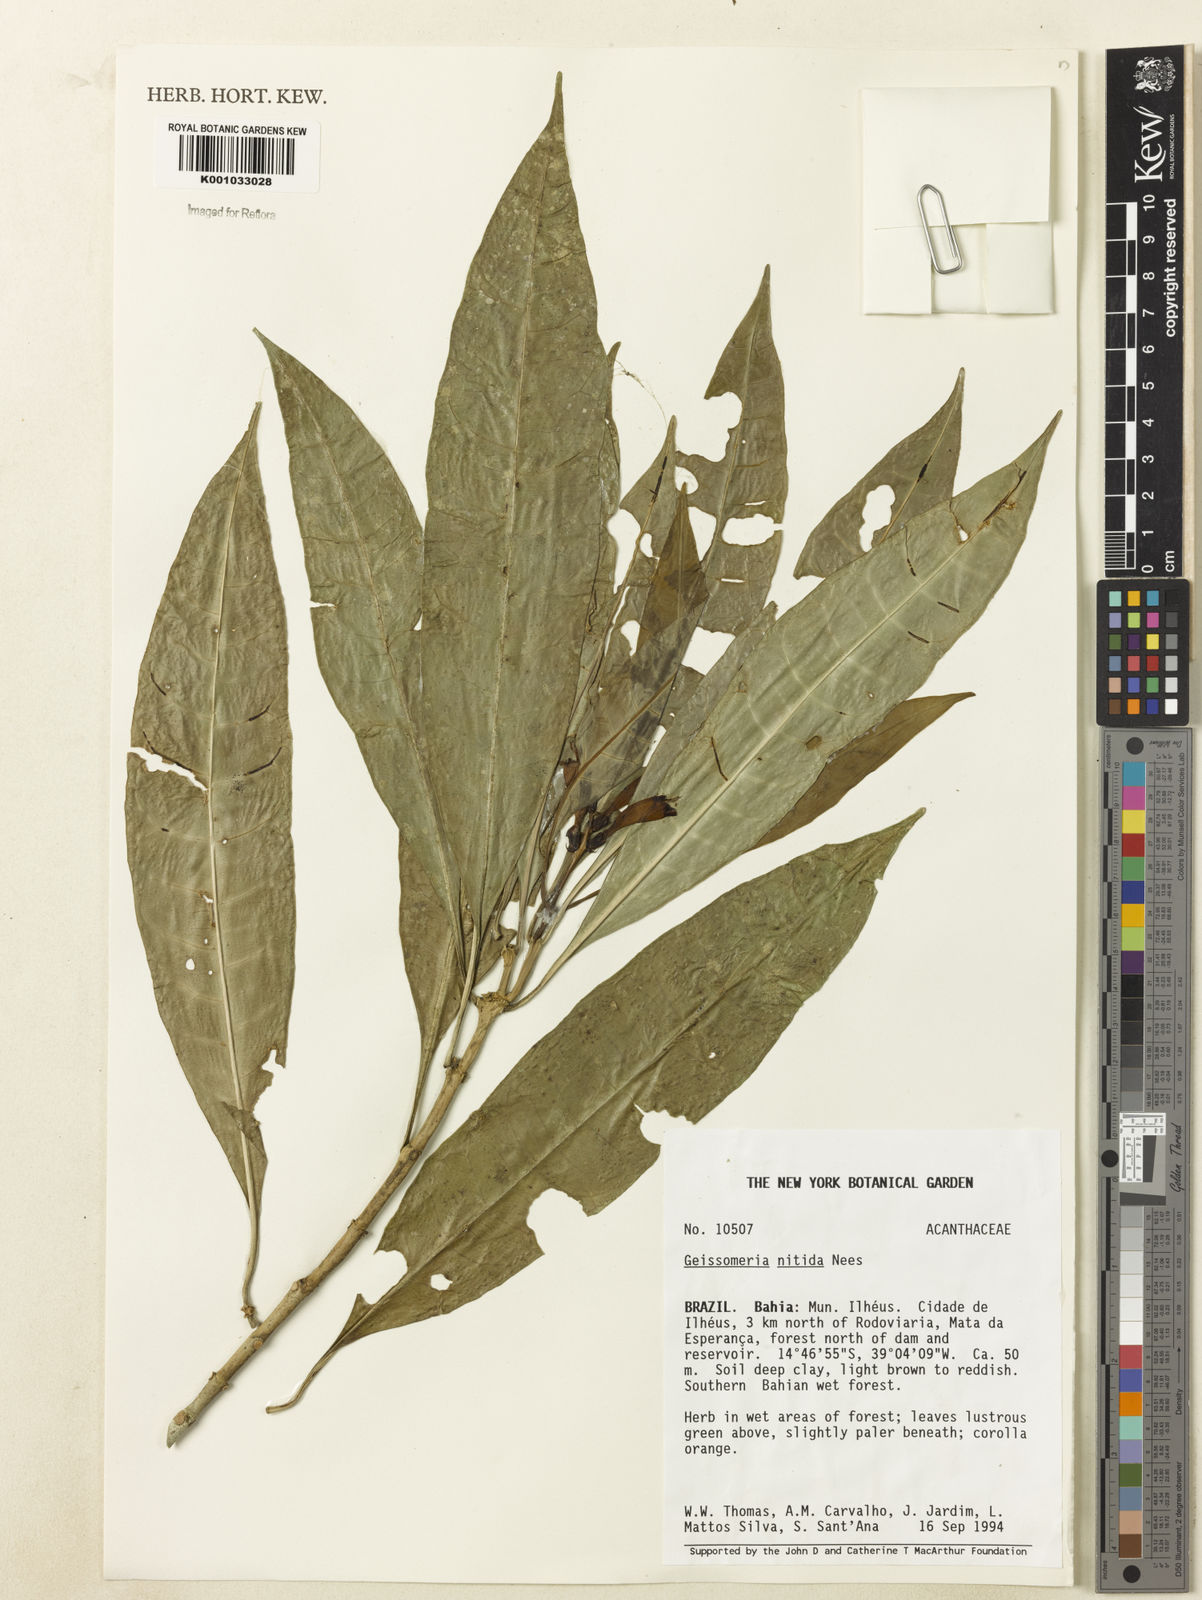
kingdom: Plantae
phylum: Tracheophyta
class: Magnoliopsida
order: Lamiales
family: Acanthaceae
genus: Aphelandra
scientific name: Aphelandra nitida
